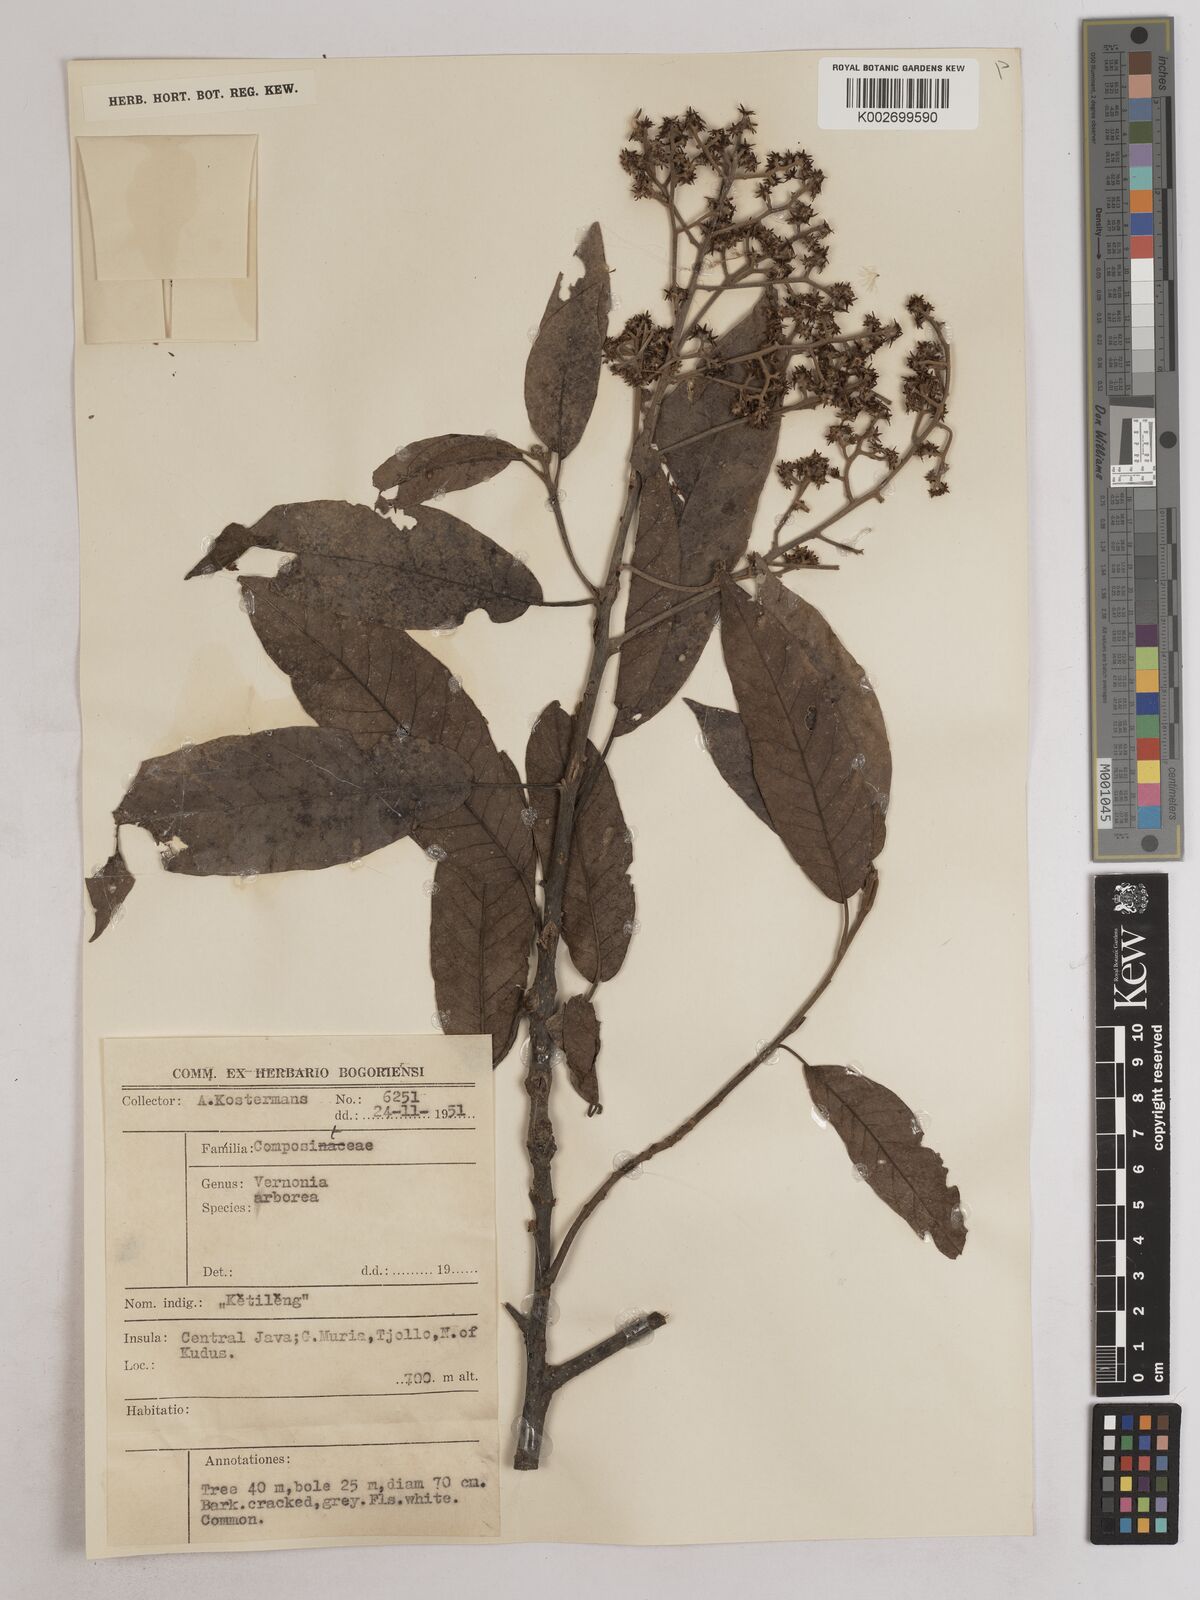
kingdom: Plantae
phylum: Tracheophyta
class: Magnoliopsida
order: Asterales
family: Asteraceae
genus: Strobocalyx
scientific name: Strobocalyx arborea
